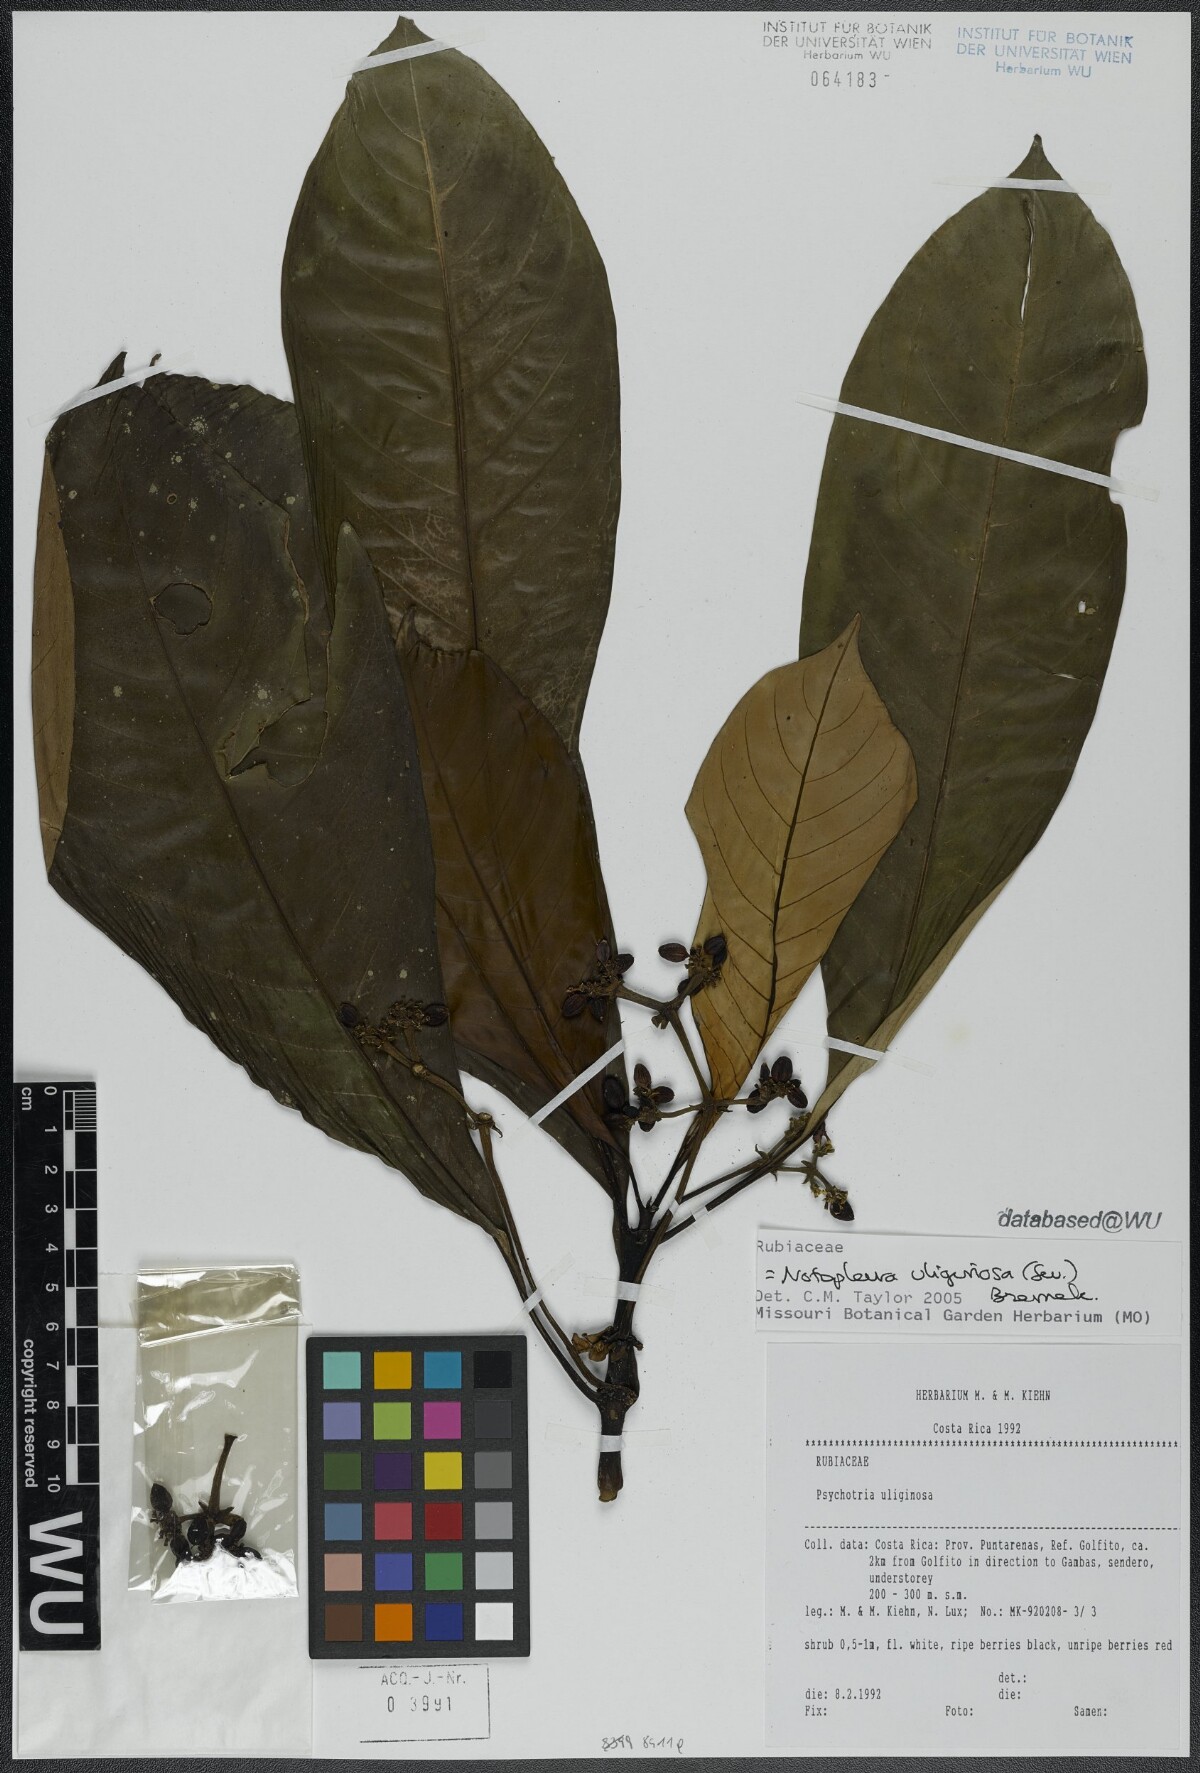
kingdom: Plantae
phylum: Tracheophyta
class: Magnoliopsida
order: Gentianales
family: Rubiaceae
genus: Notopleura
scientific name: Notopleura uliginosa
